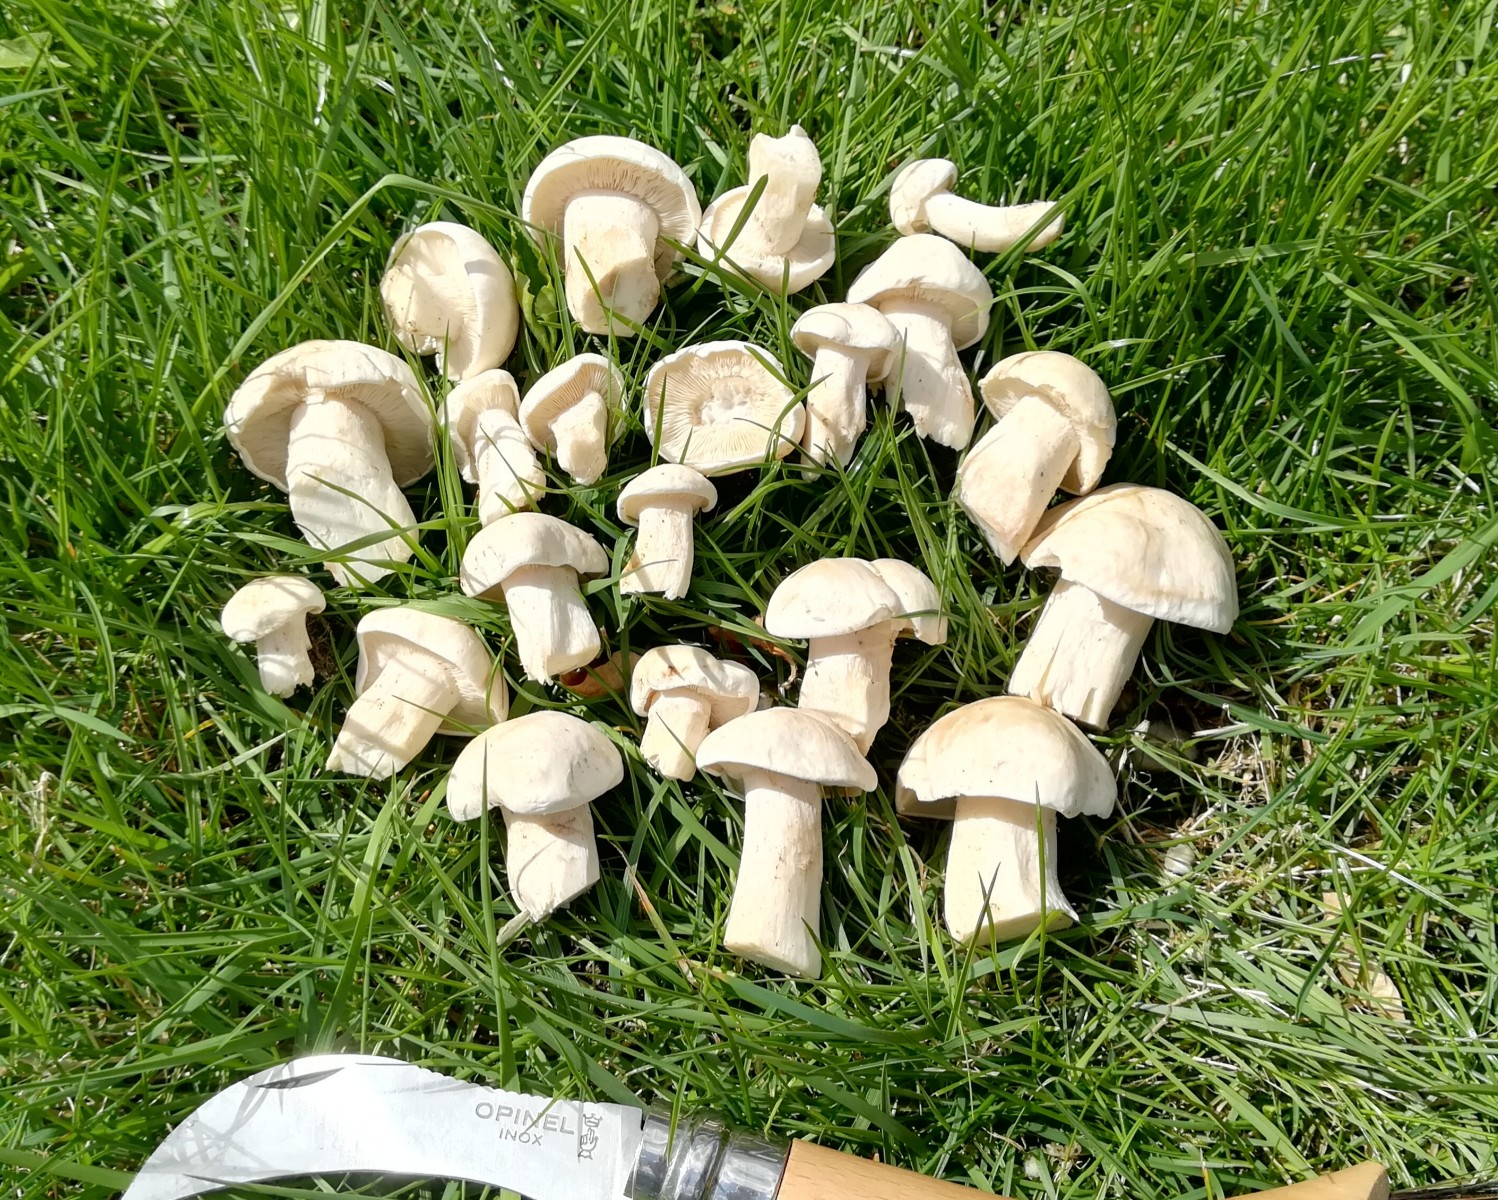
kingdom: Fungi
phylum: Basidiomycota
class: Agaricomycetes
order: Agaricales
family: Lyophyllaceae
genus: Calocybe
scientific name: Calocybe gambosa
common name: vårmusseron
